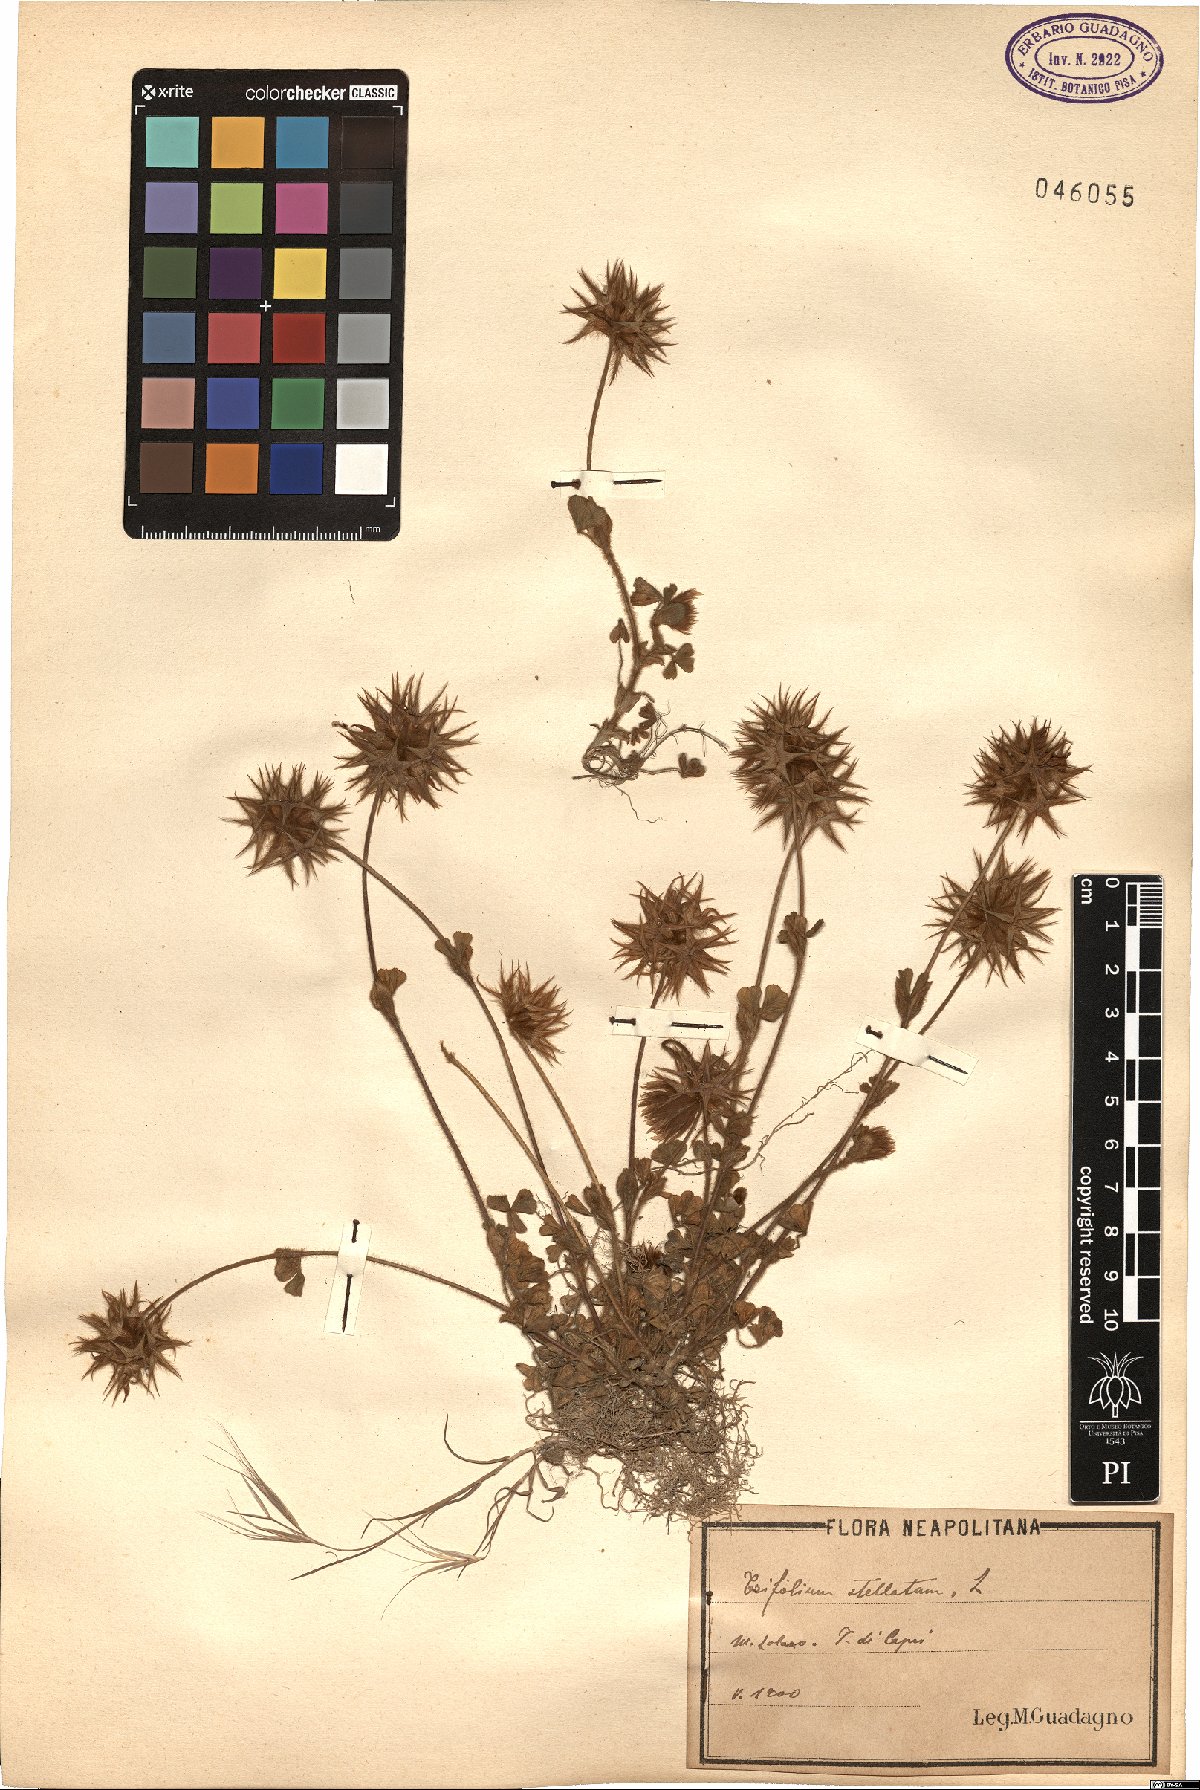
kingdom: Plantae
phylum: Tracheophyta
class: Magnoliopsida
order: Fabales
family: Fabaceae
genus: Trifolium
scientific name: Trifolium stellatum
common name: Starry clover
